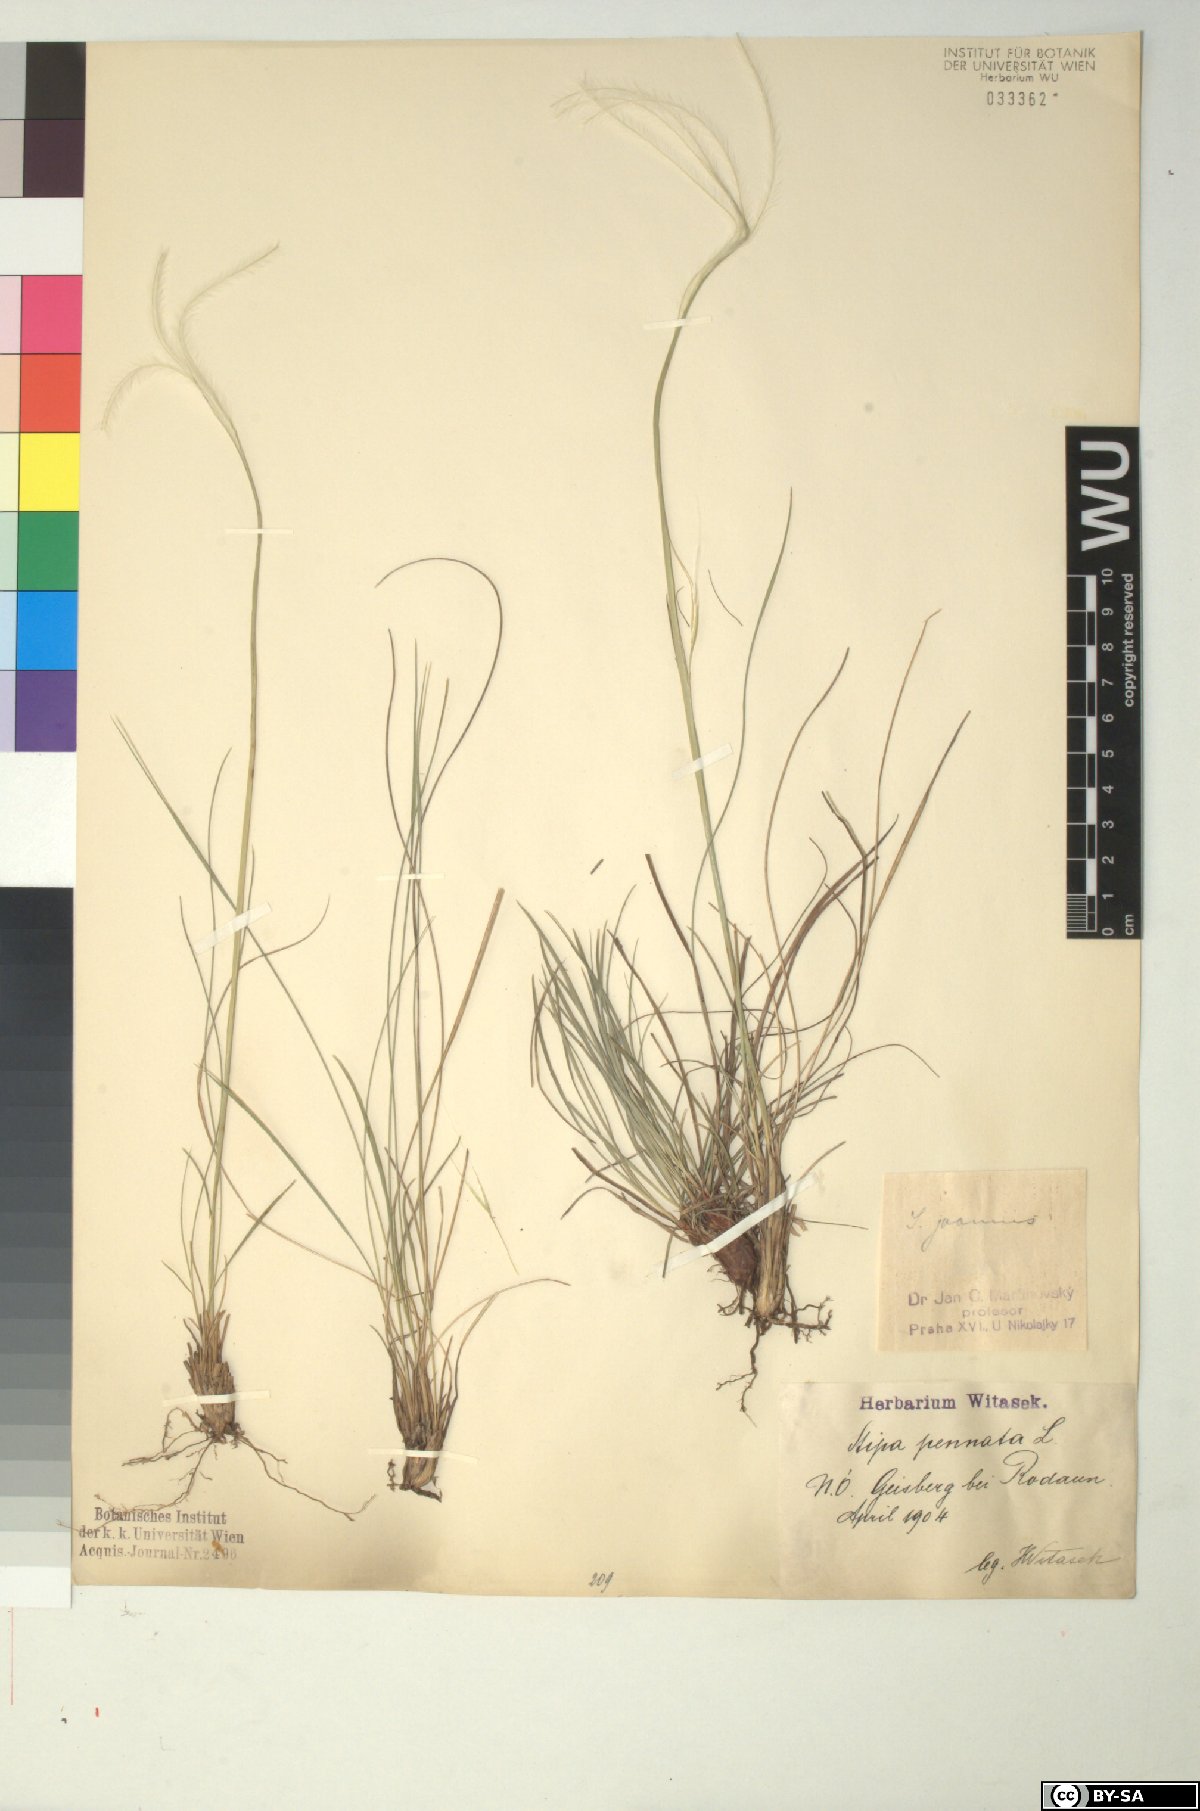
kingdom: Plantae
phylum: Tracheophyta
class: Liliopsida
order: Poales
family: Poaceae
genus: Stipa
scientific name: Stipa pennata
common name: European feather grass
